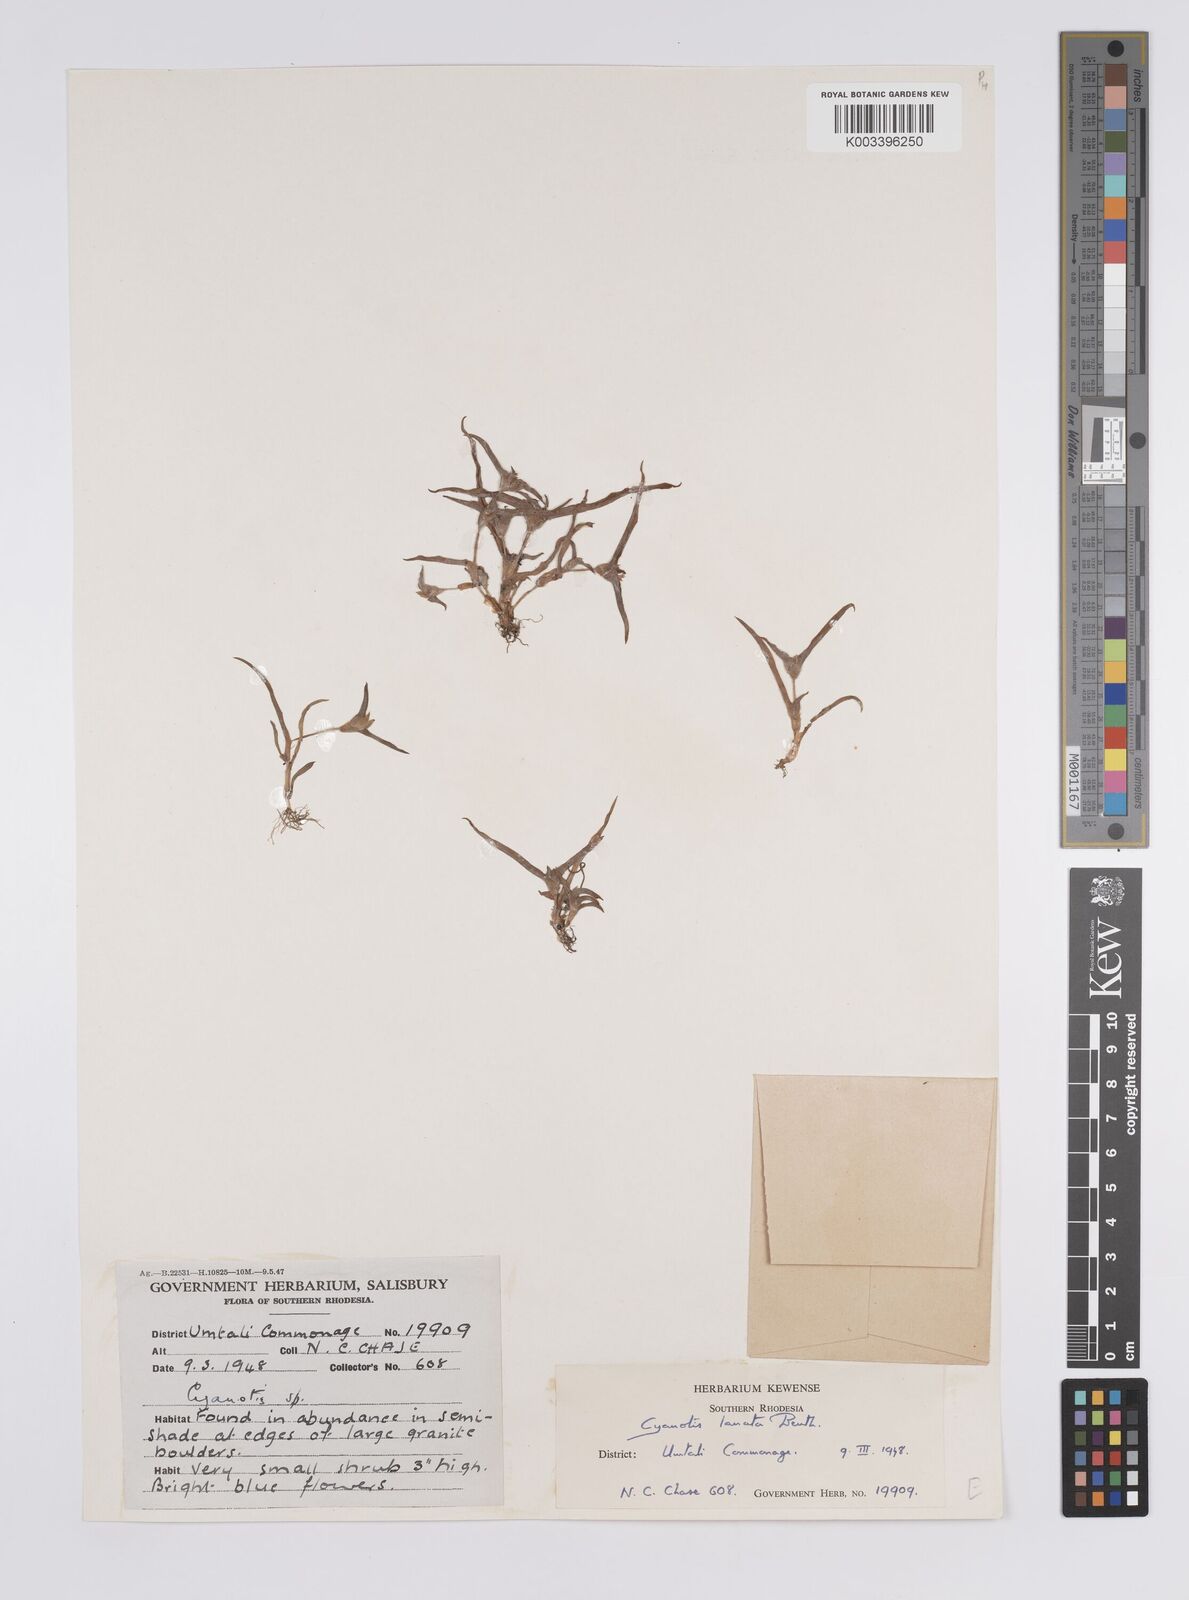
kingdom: Plantae
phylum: Tracheophyta
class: Liliopsida
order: Commelinales
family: Commelinaceae
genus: Cyanotis
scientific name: Cyanotis lanata
